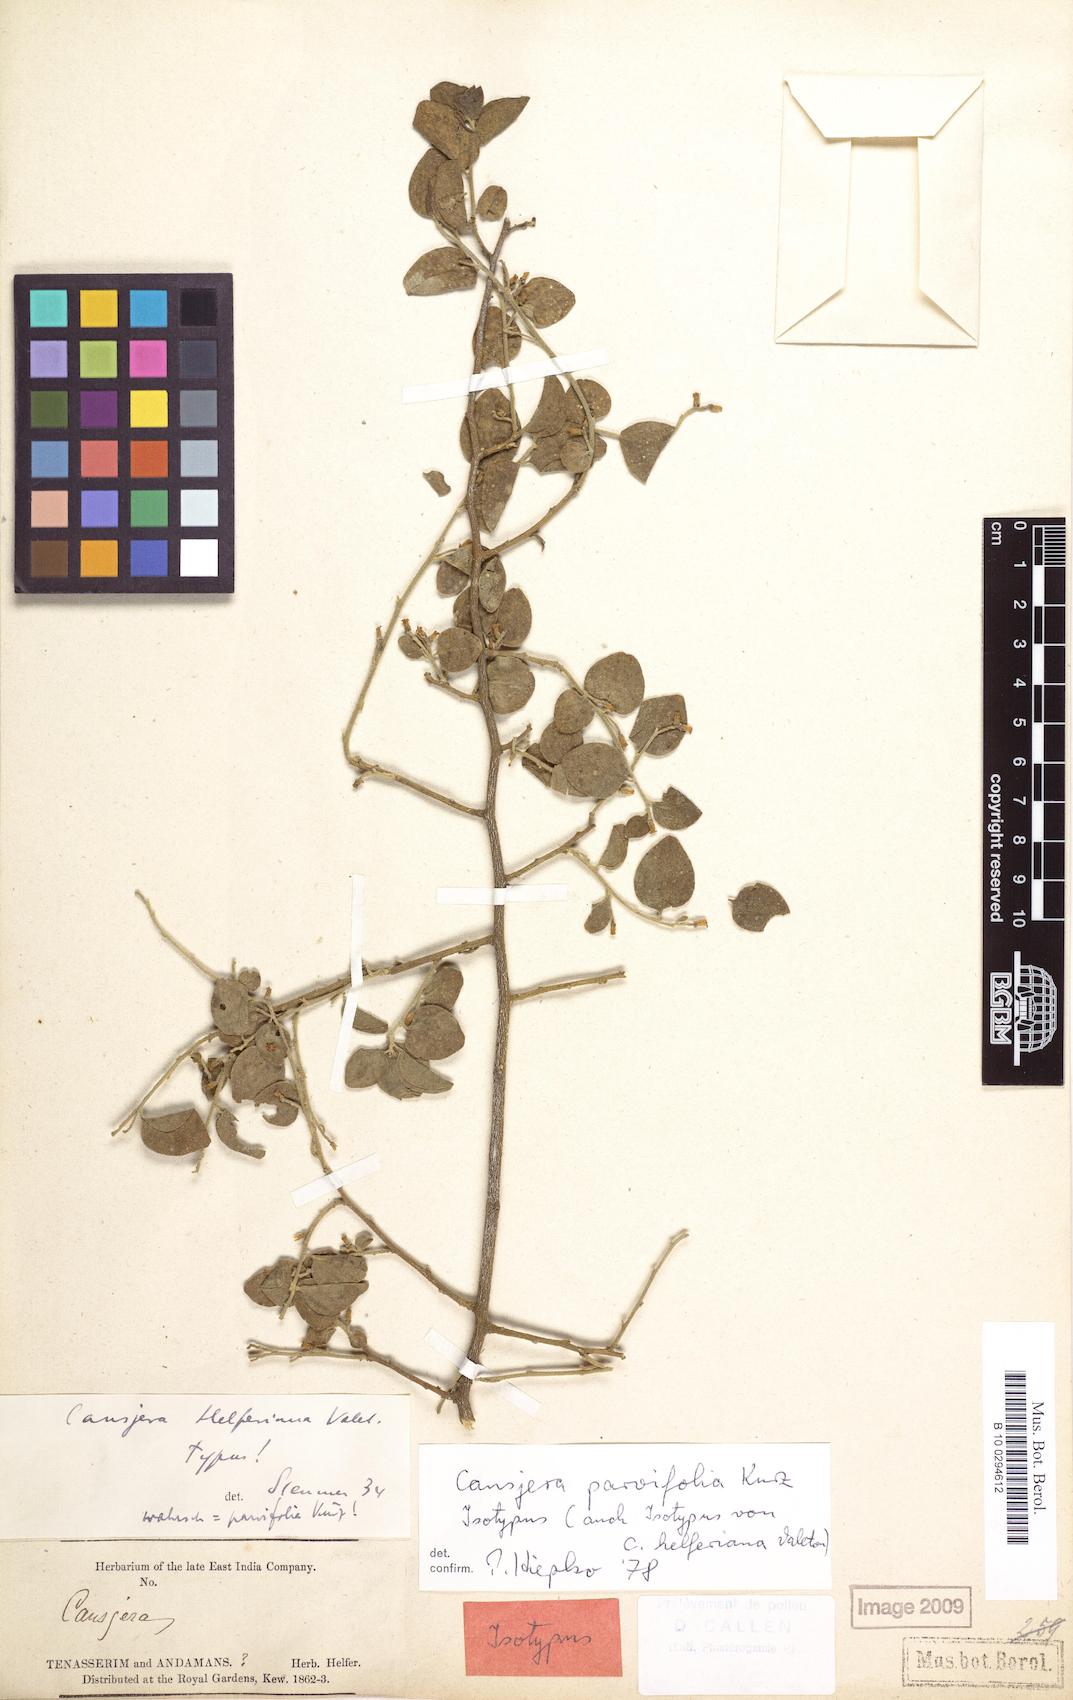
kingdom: Plantae
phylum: Tracheophyta
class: Magnoliopsida
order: Santalales
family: Opiliaceae
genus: Cansjera
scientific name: Cansjera parvifolia
